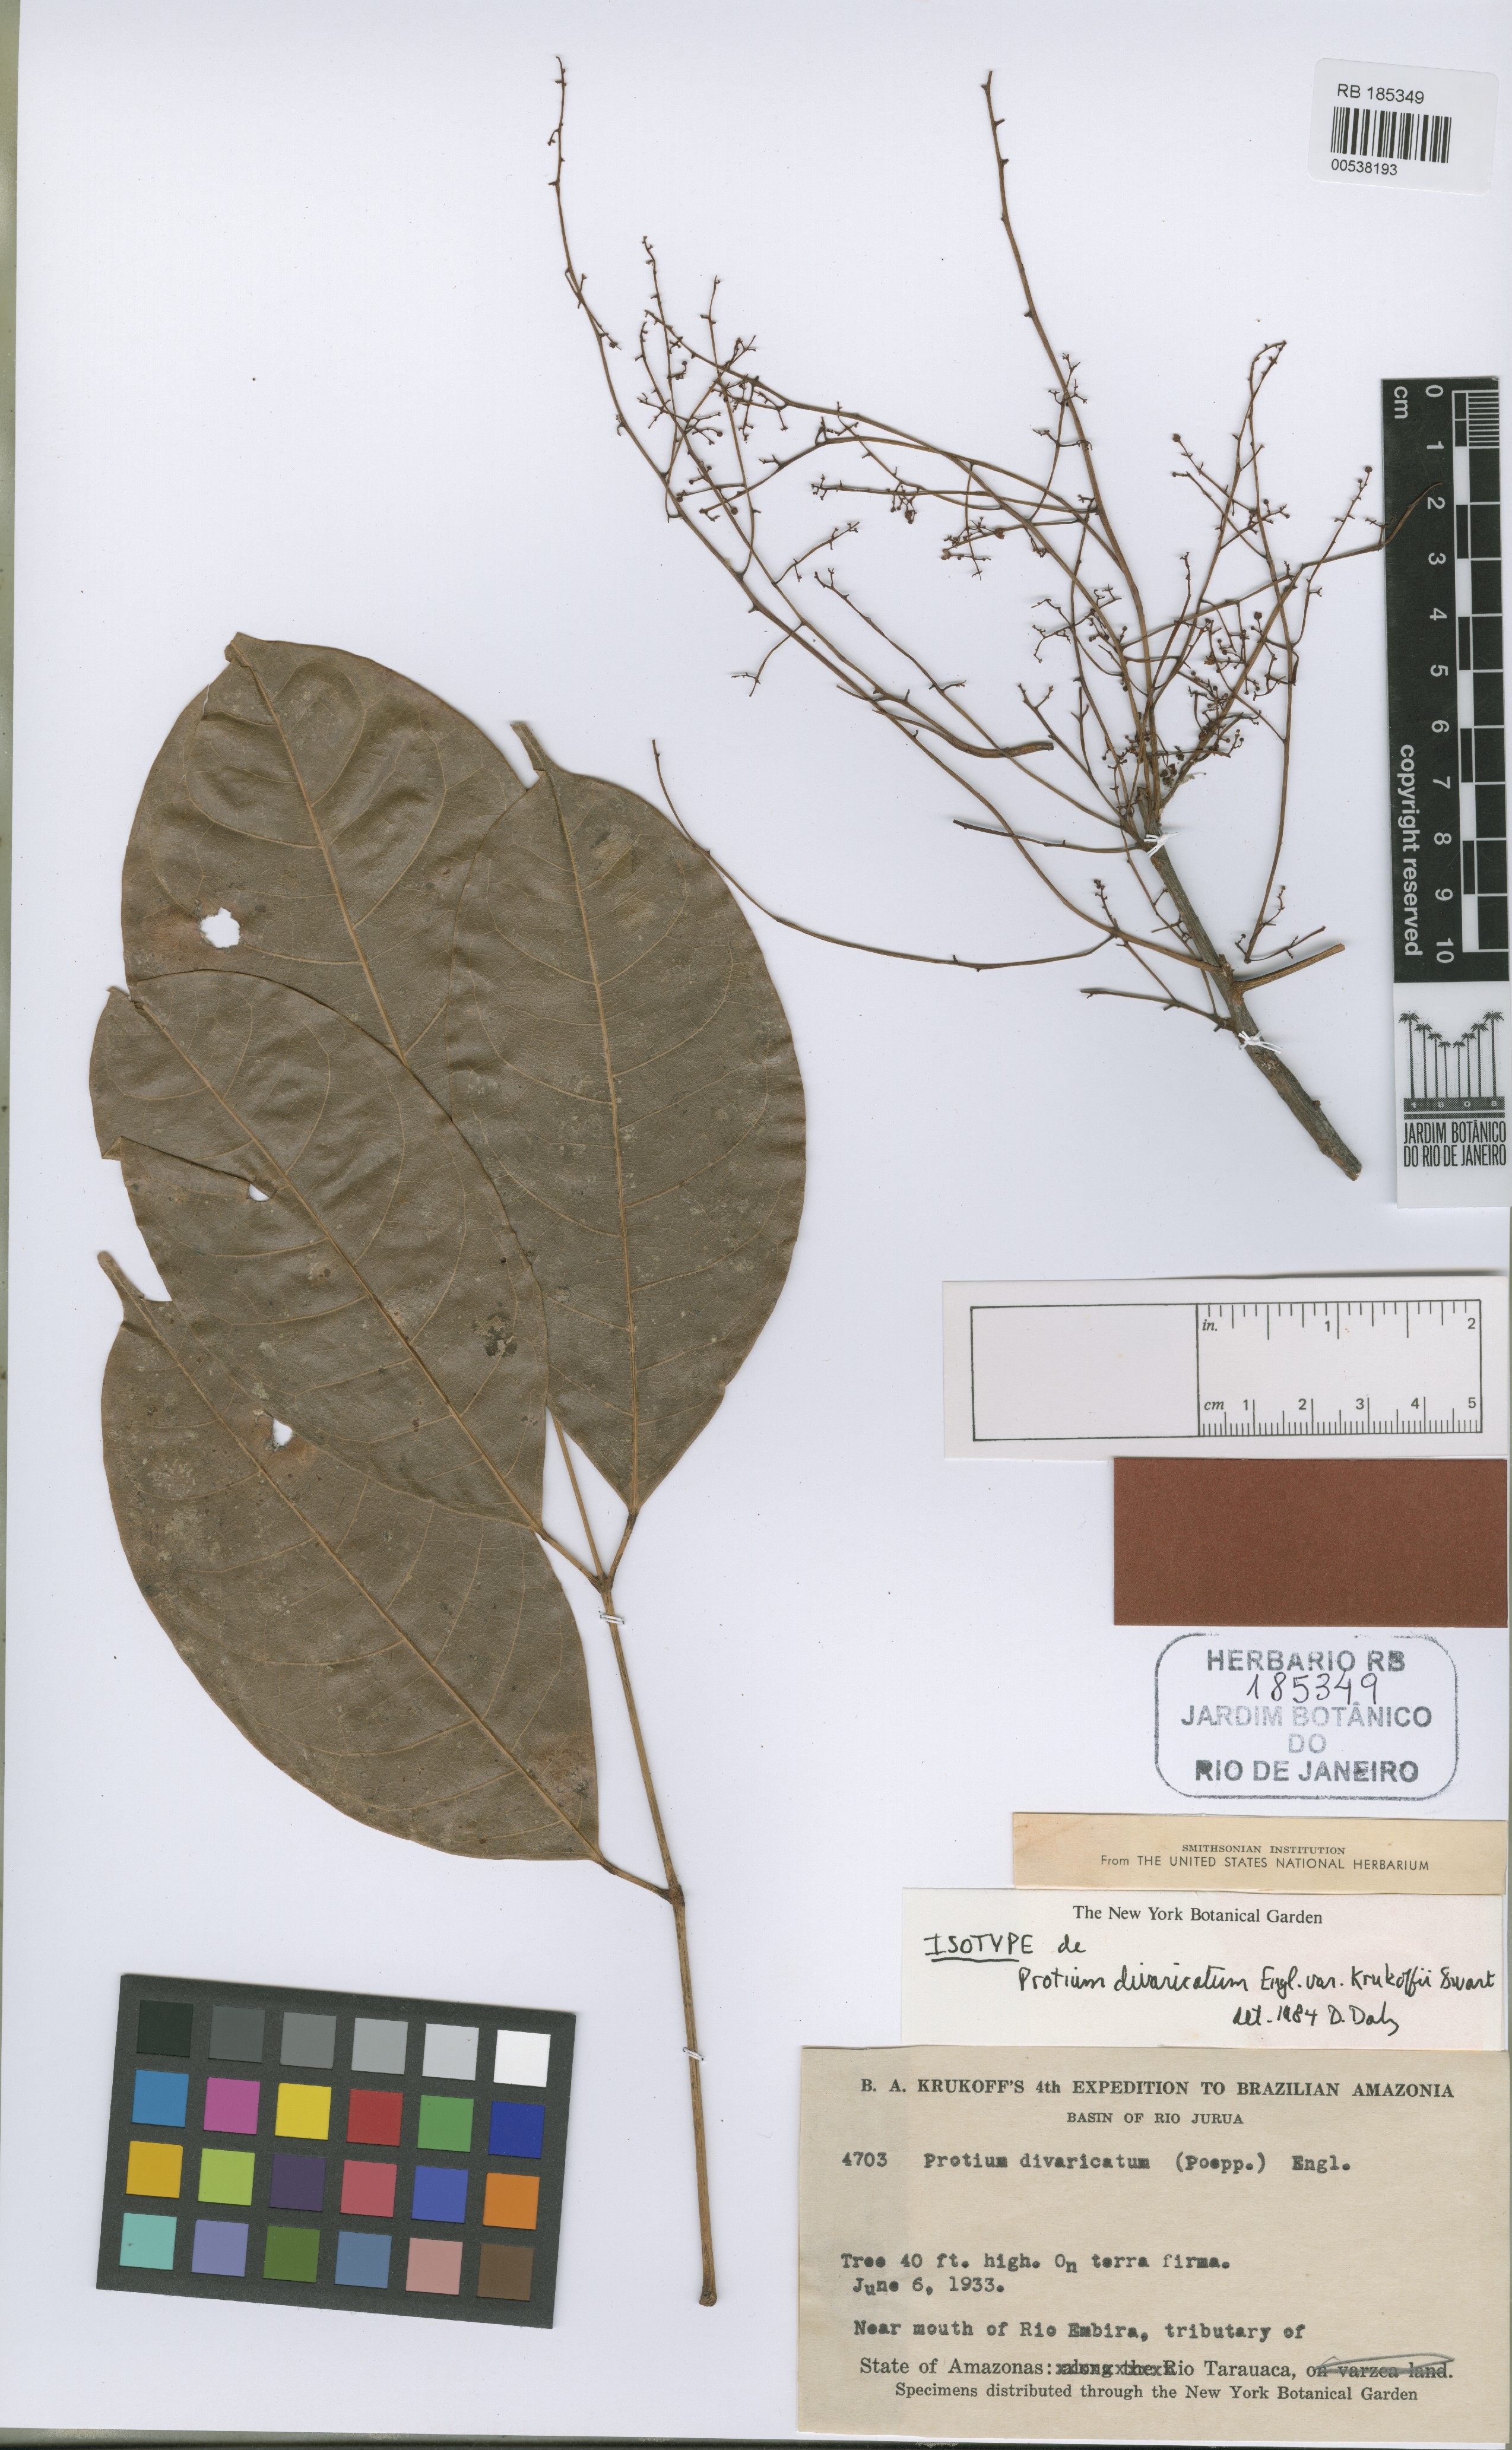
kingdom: Plantae
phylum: Tracheophyta
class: Magnoliopsida
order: Sapindales
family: Burseraceae
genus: Protium
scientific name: Protium divaricatum
